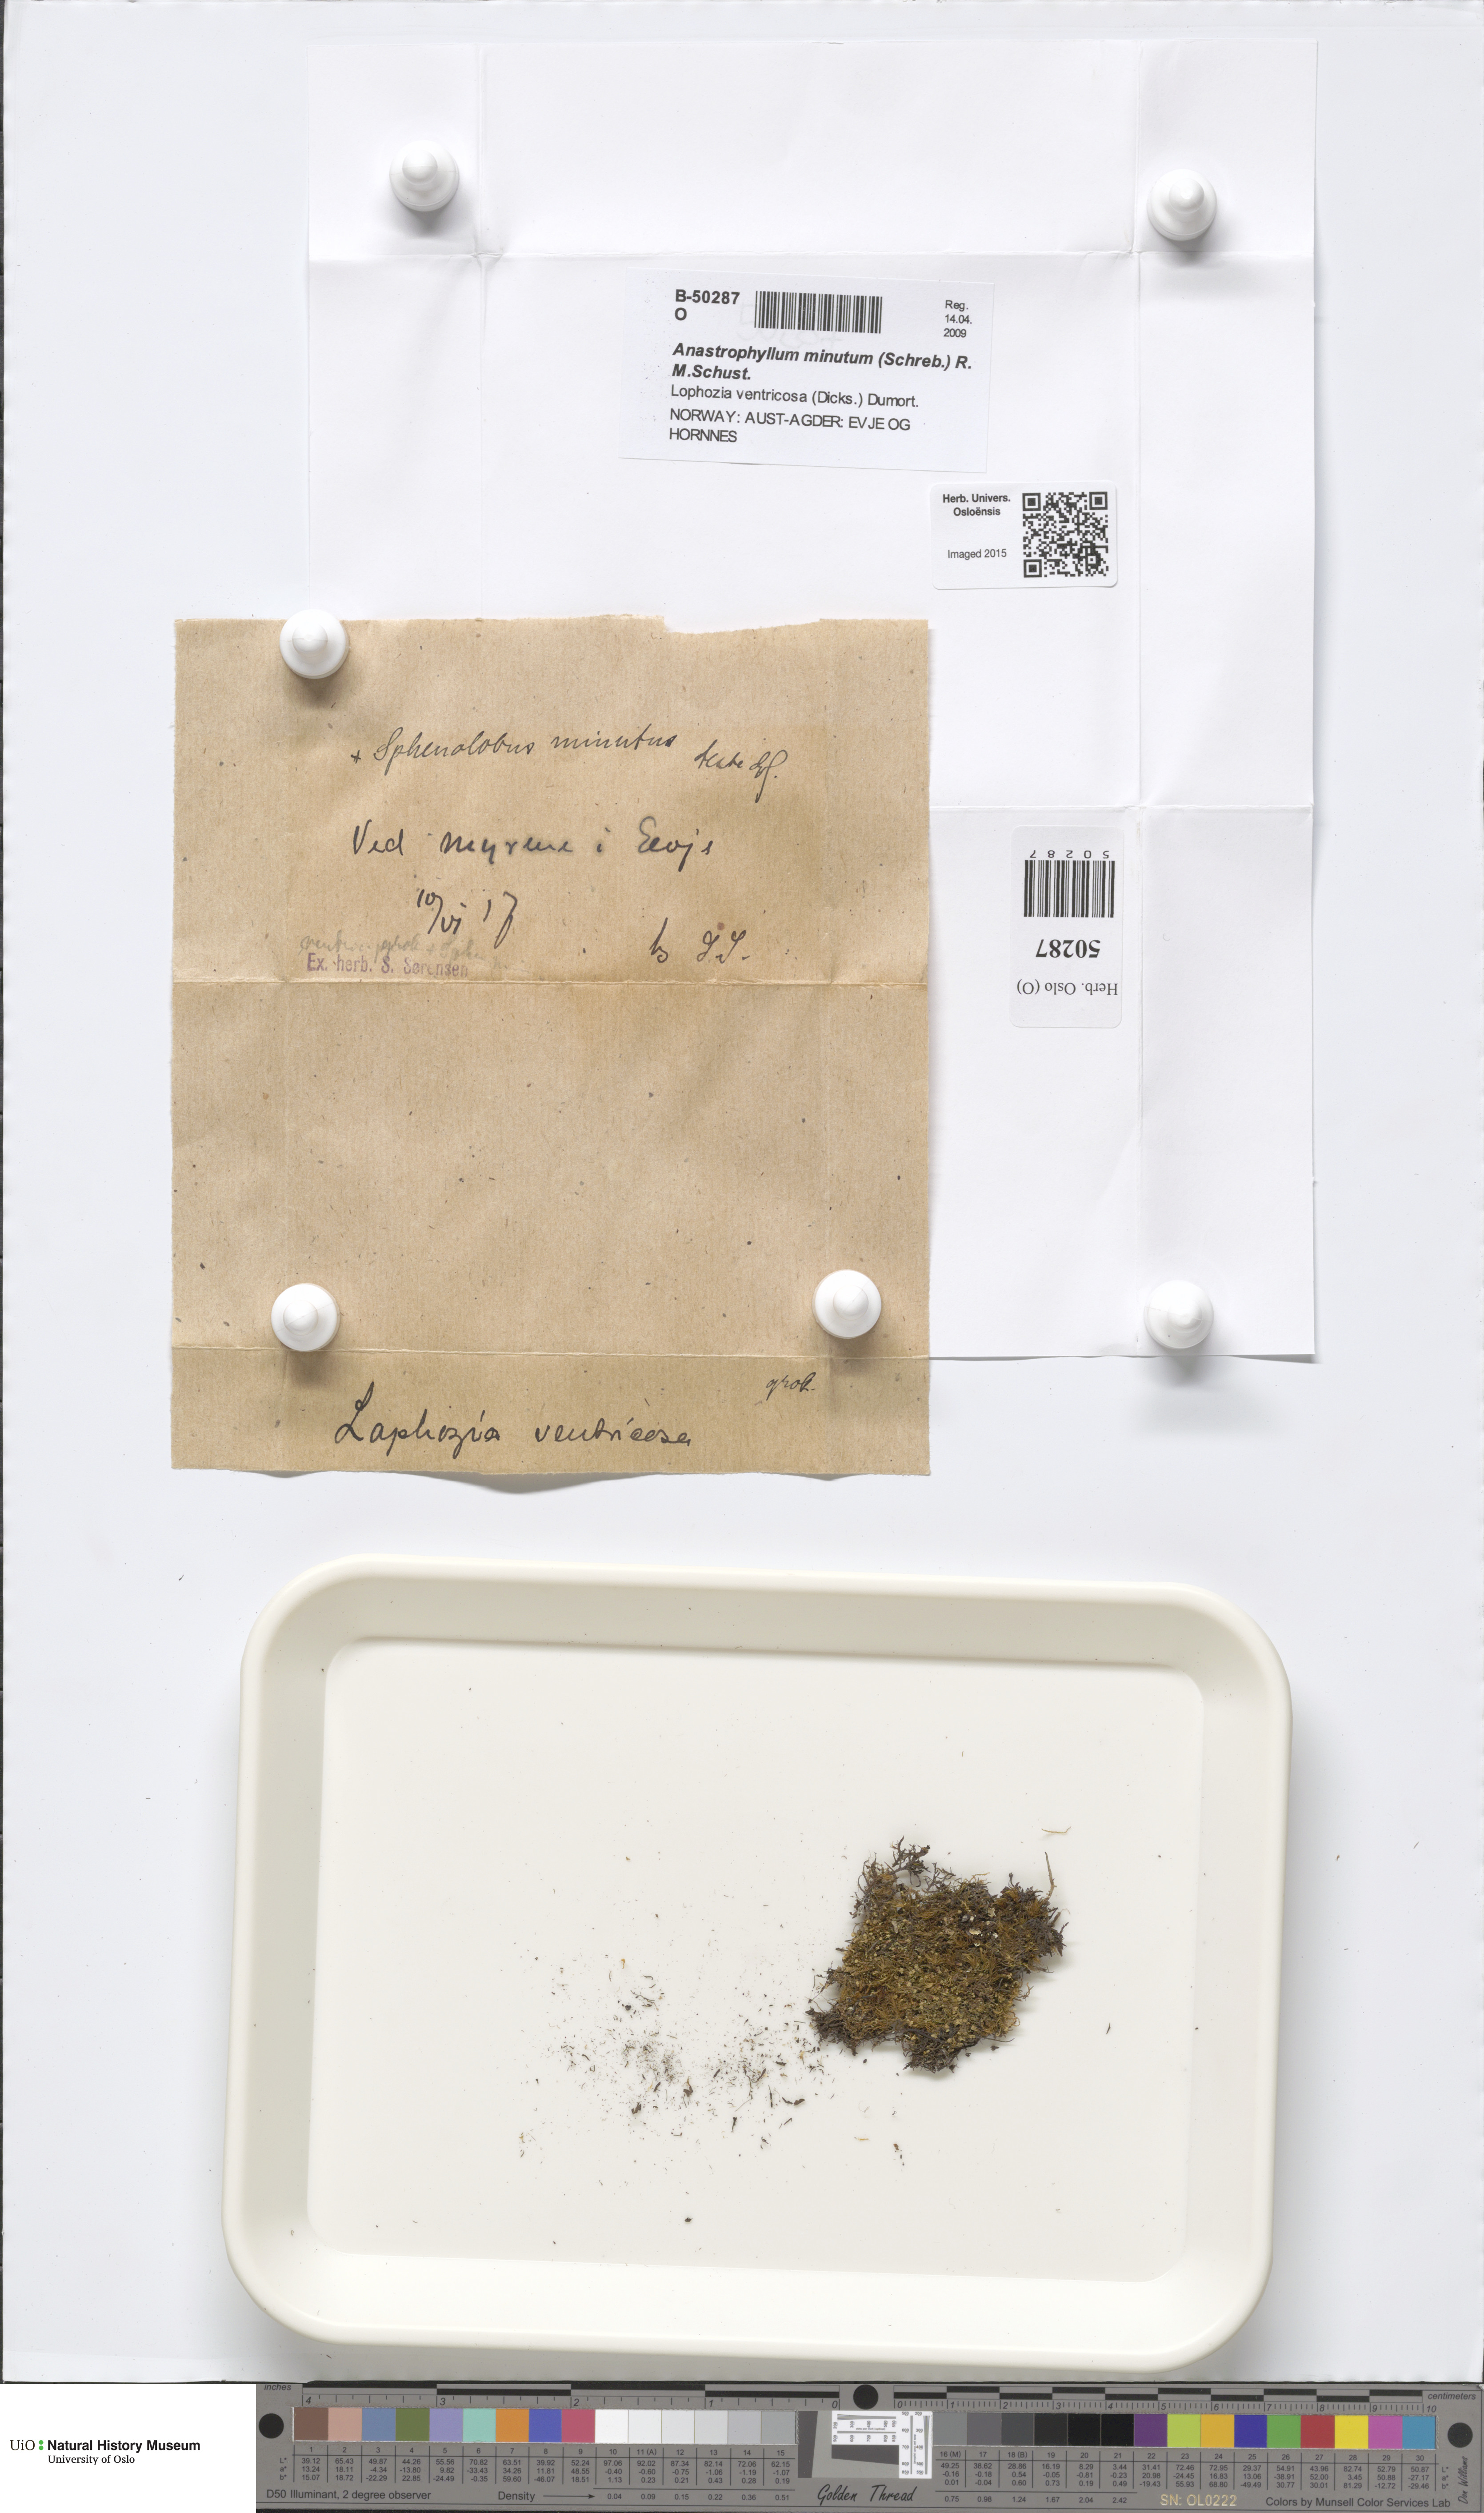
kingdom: Plantae
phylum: Marchantiophyta
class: Jungermanniopsida
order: Jungermanniales
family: Anastrophyllaceae
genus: Sphenolobus
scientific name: Sphenolobus minutus
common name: Comb notchwort
